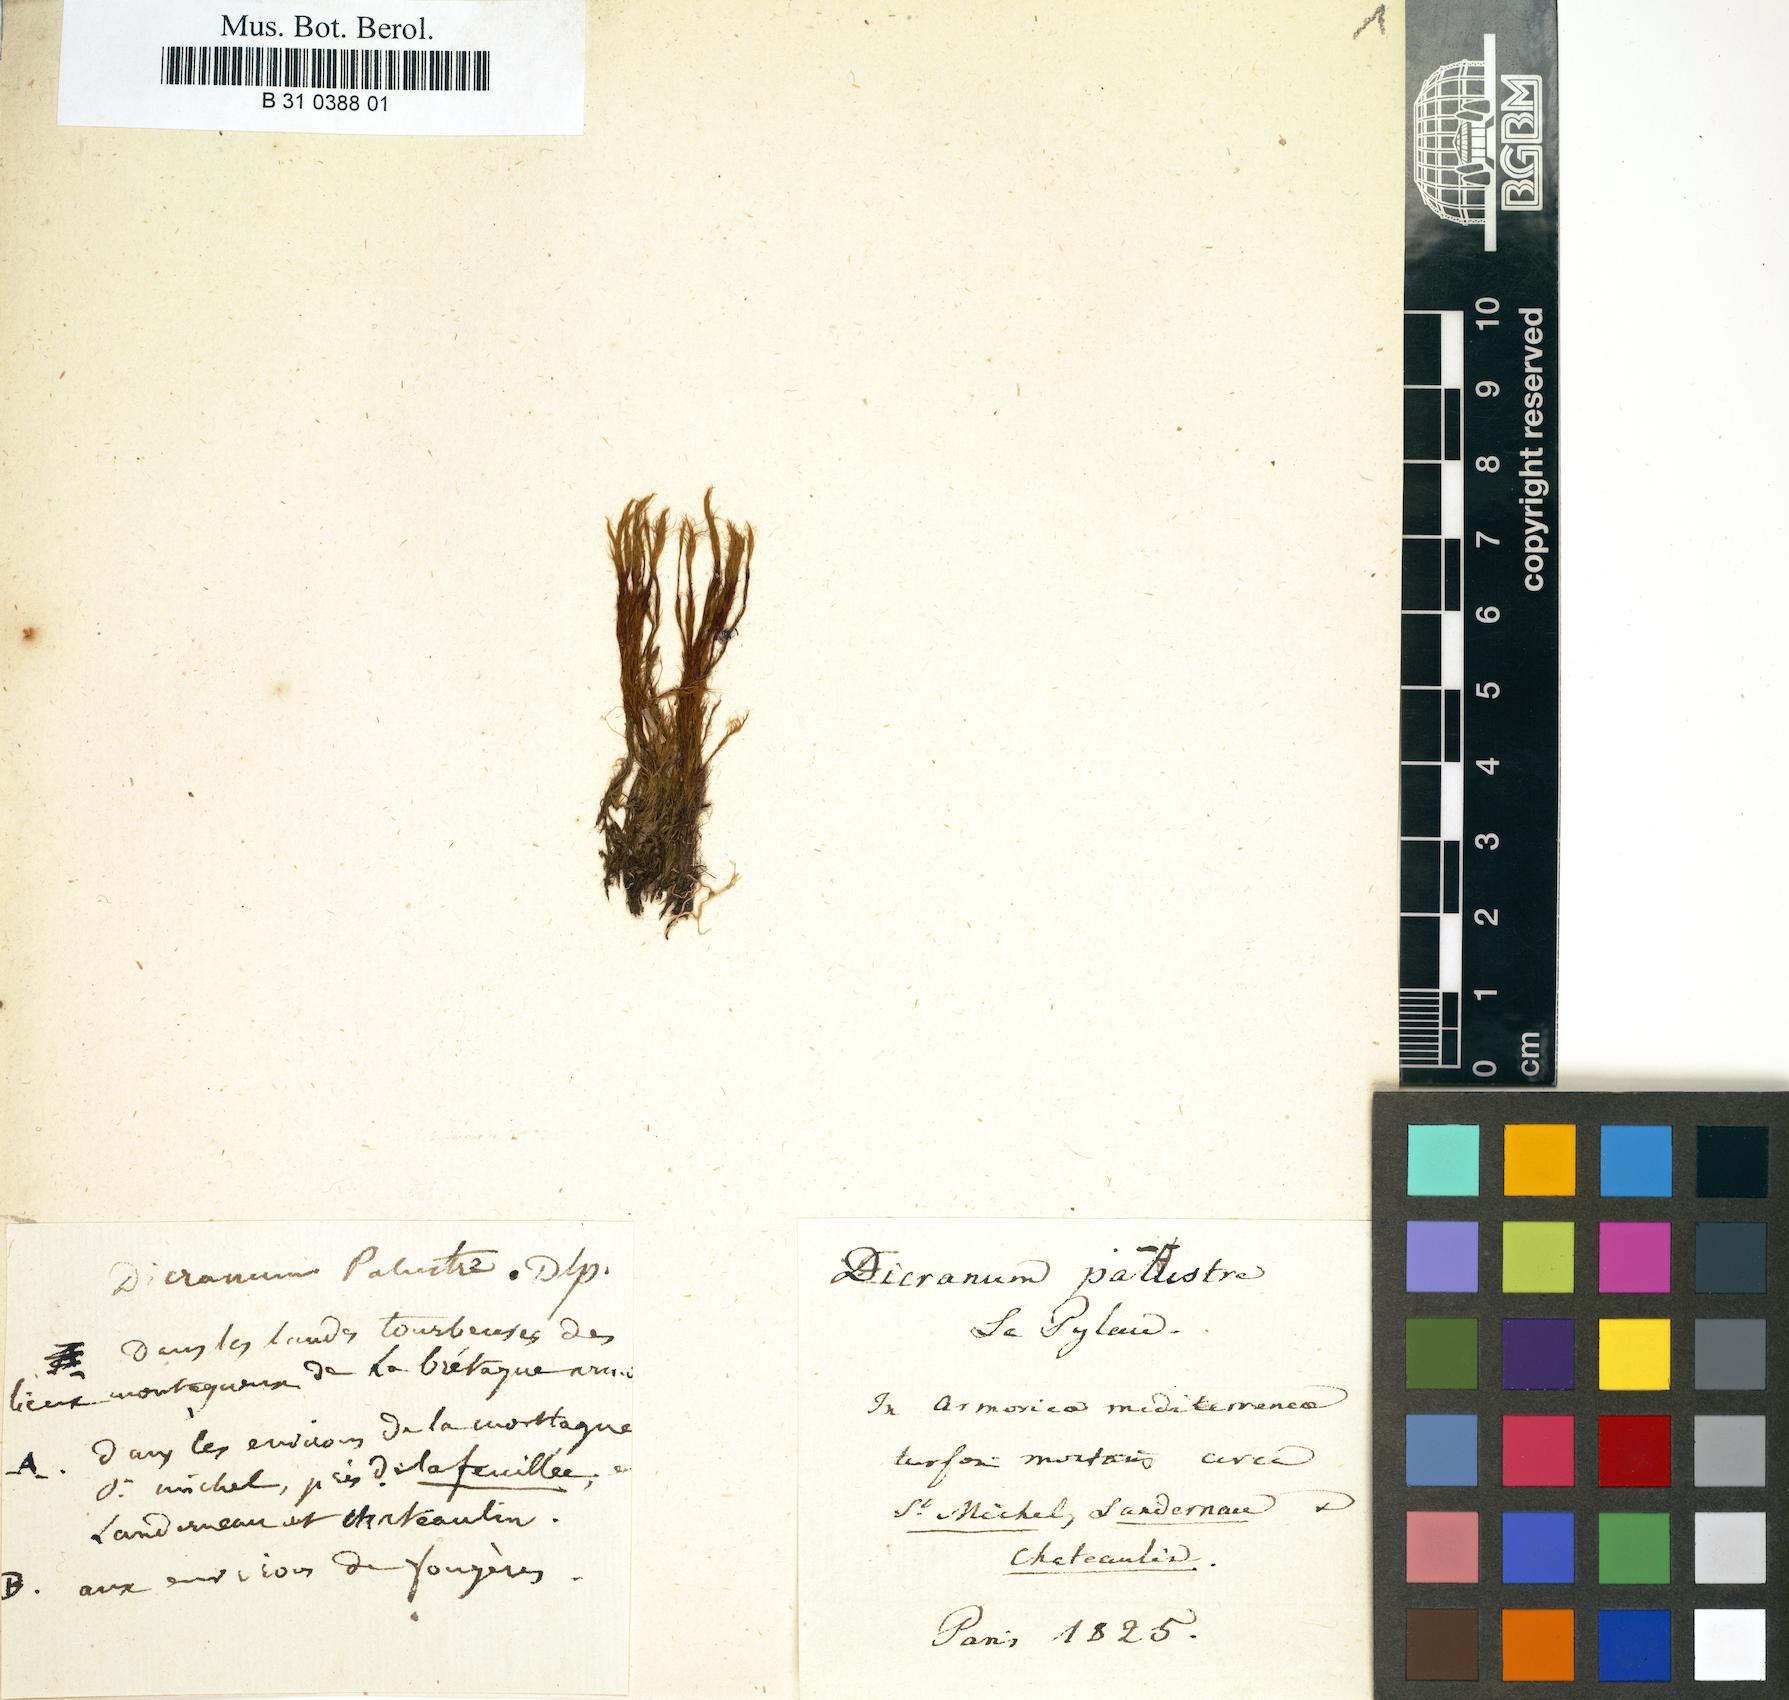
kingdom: Plantae
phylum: Bryophyta
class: Bryopsida
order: Dicranales
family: Ditrichaceae
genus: Ceratodon
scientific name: Ceratodon purpureus
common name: Redshank
